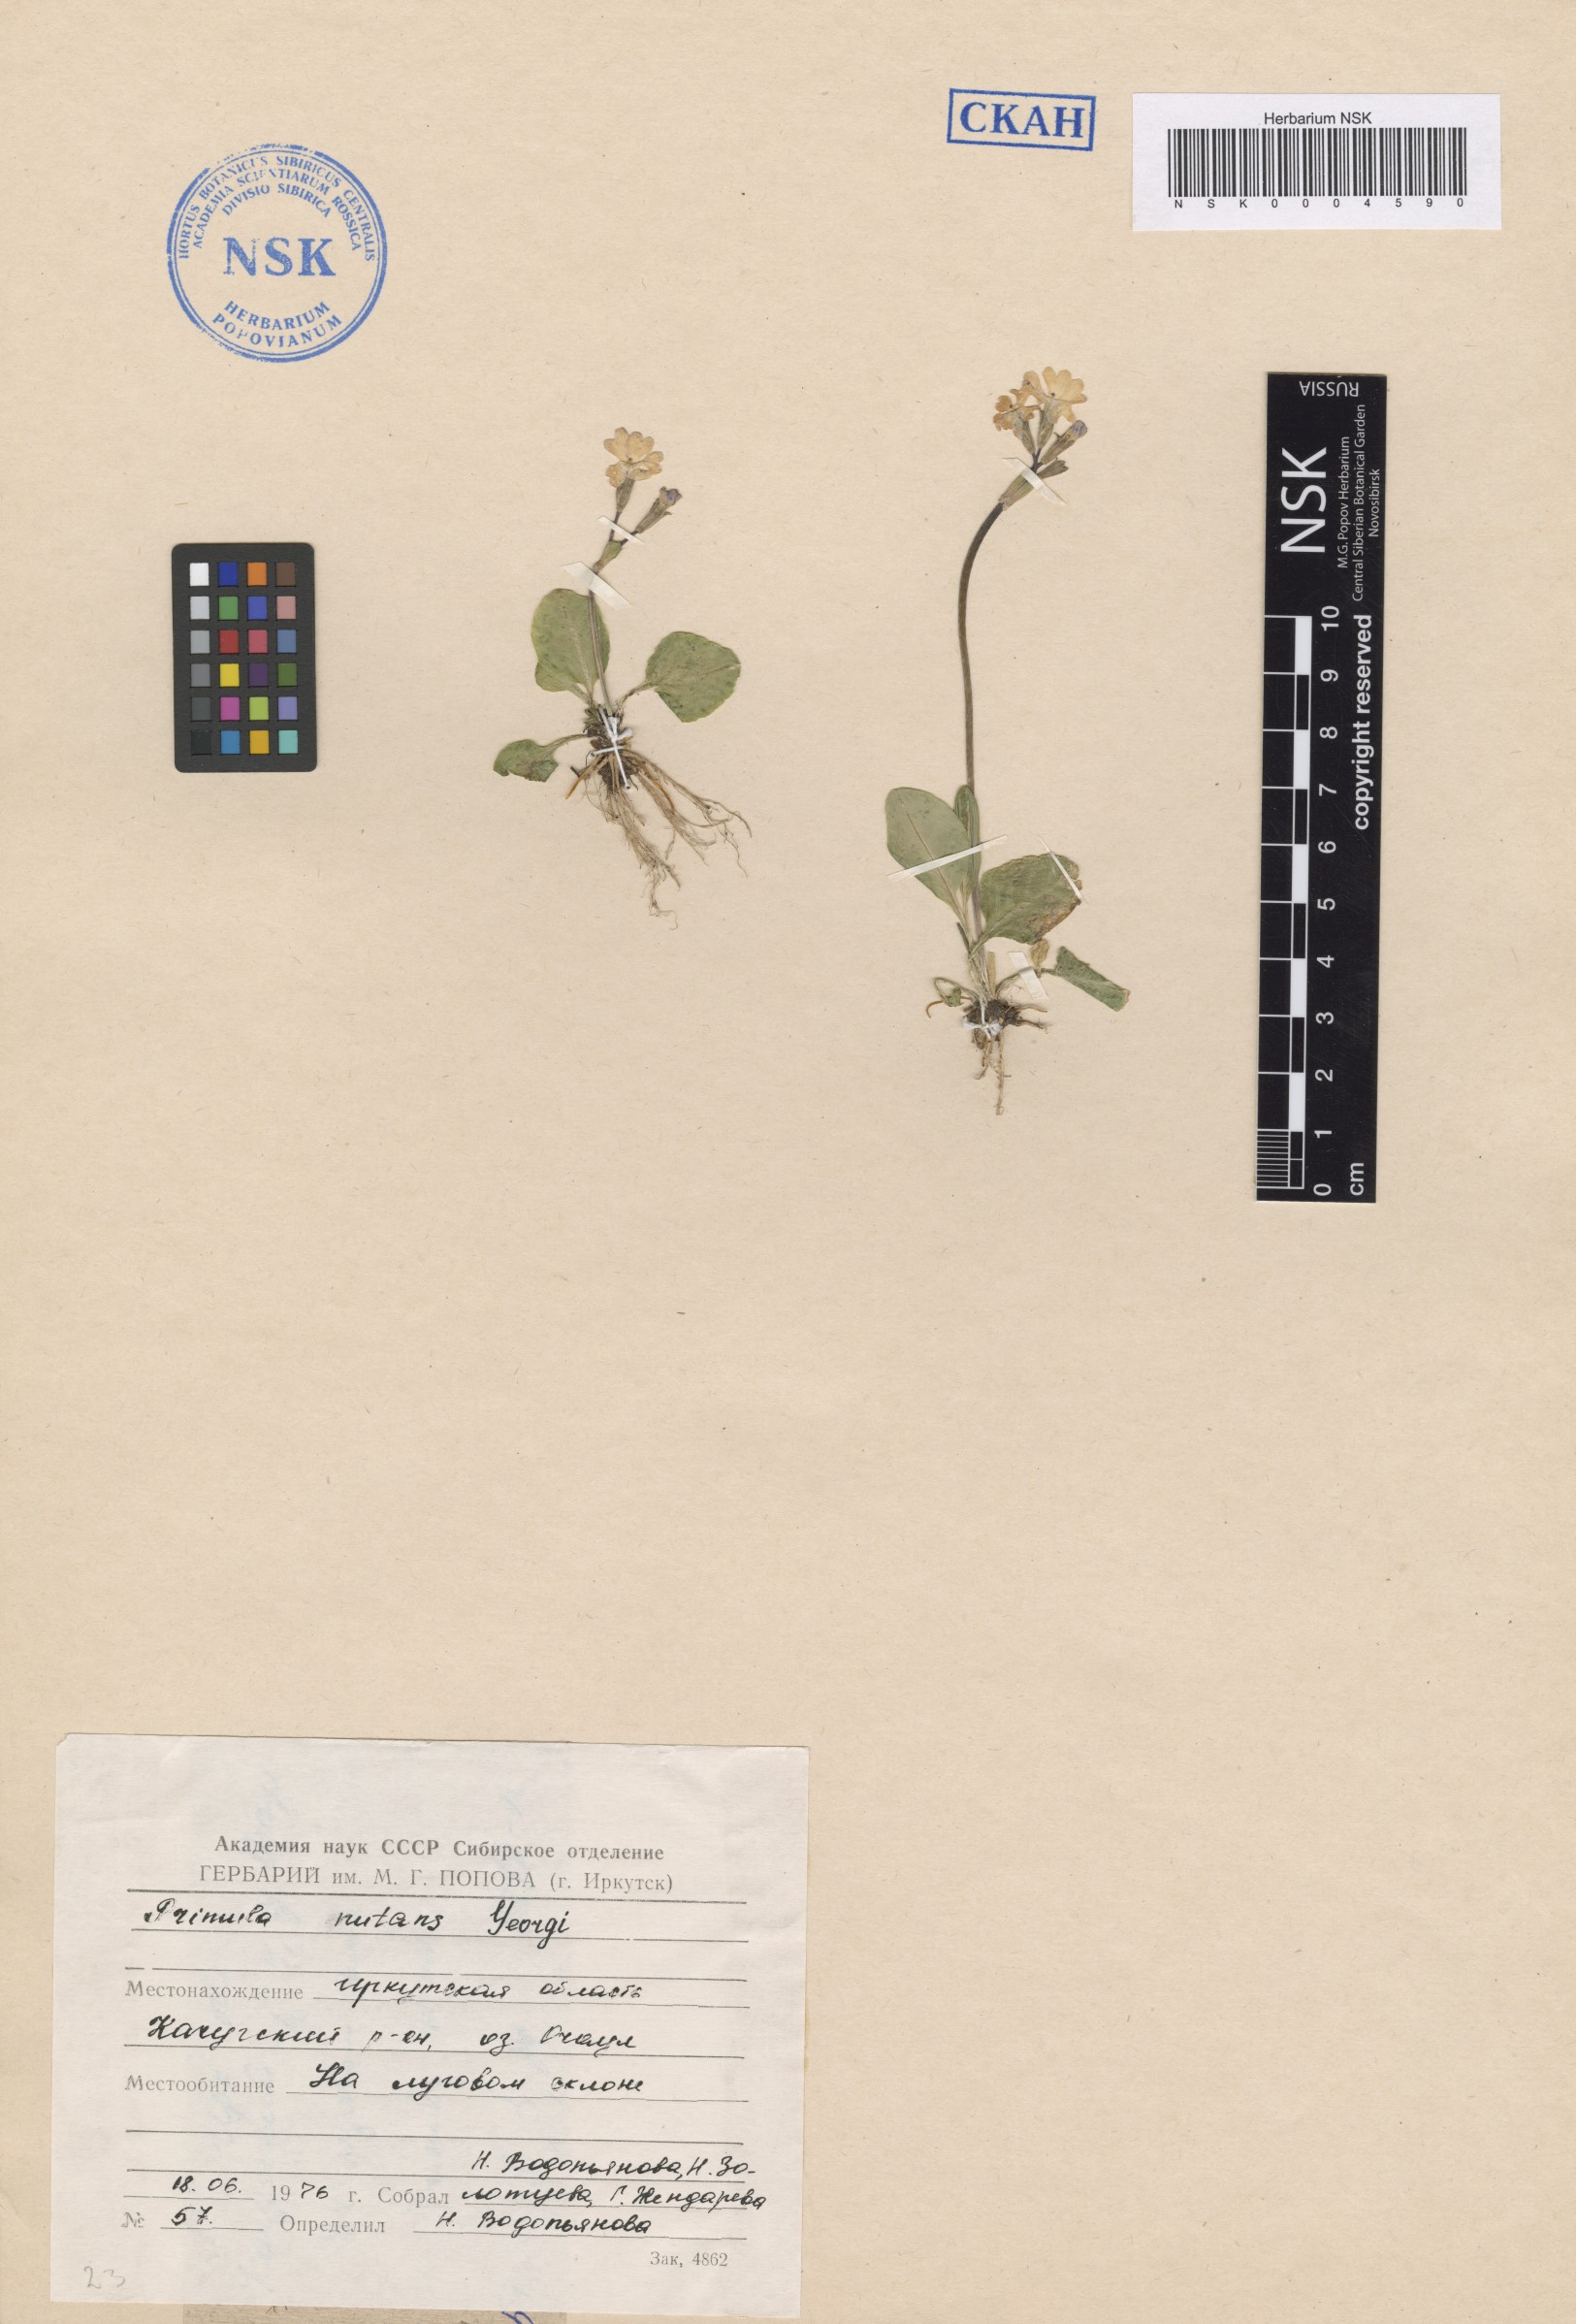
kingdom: Plantae
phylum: Tracheophyta
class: Magnoliopsida
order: Ericales
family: Primulaceae
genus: Primula
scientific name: Primula nutans
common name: Siberian primrose
